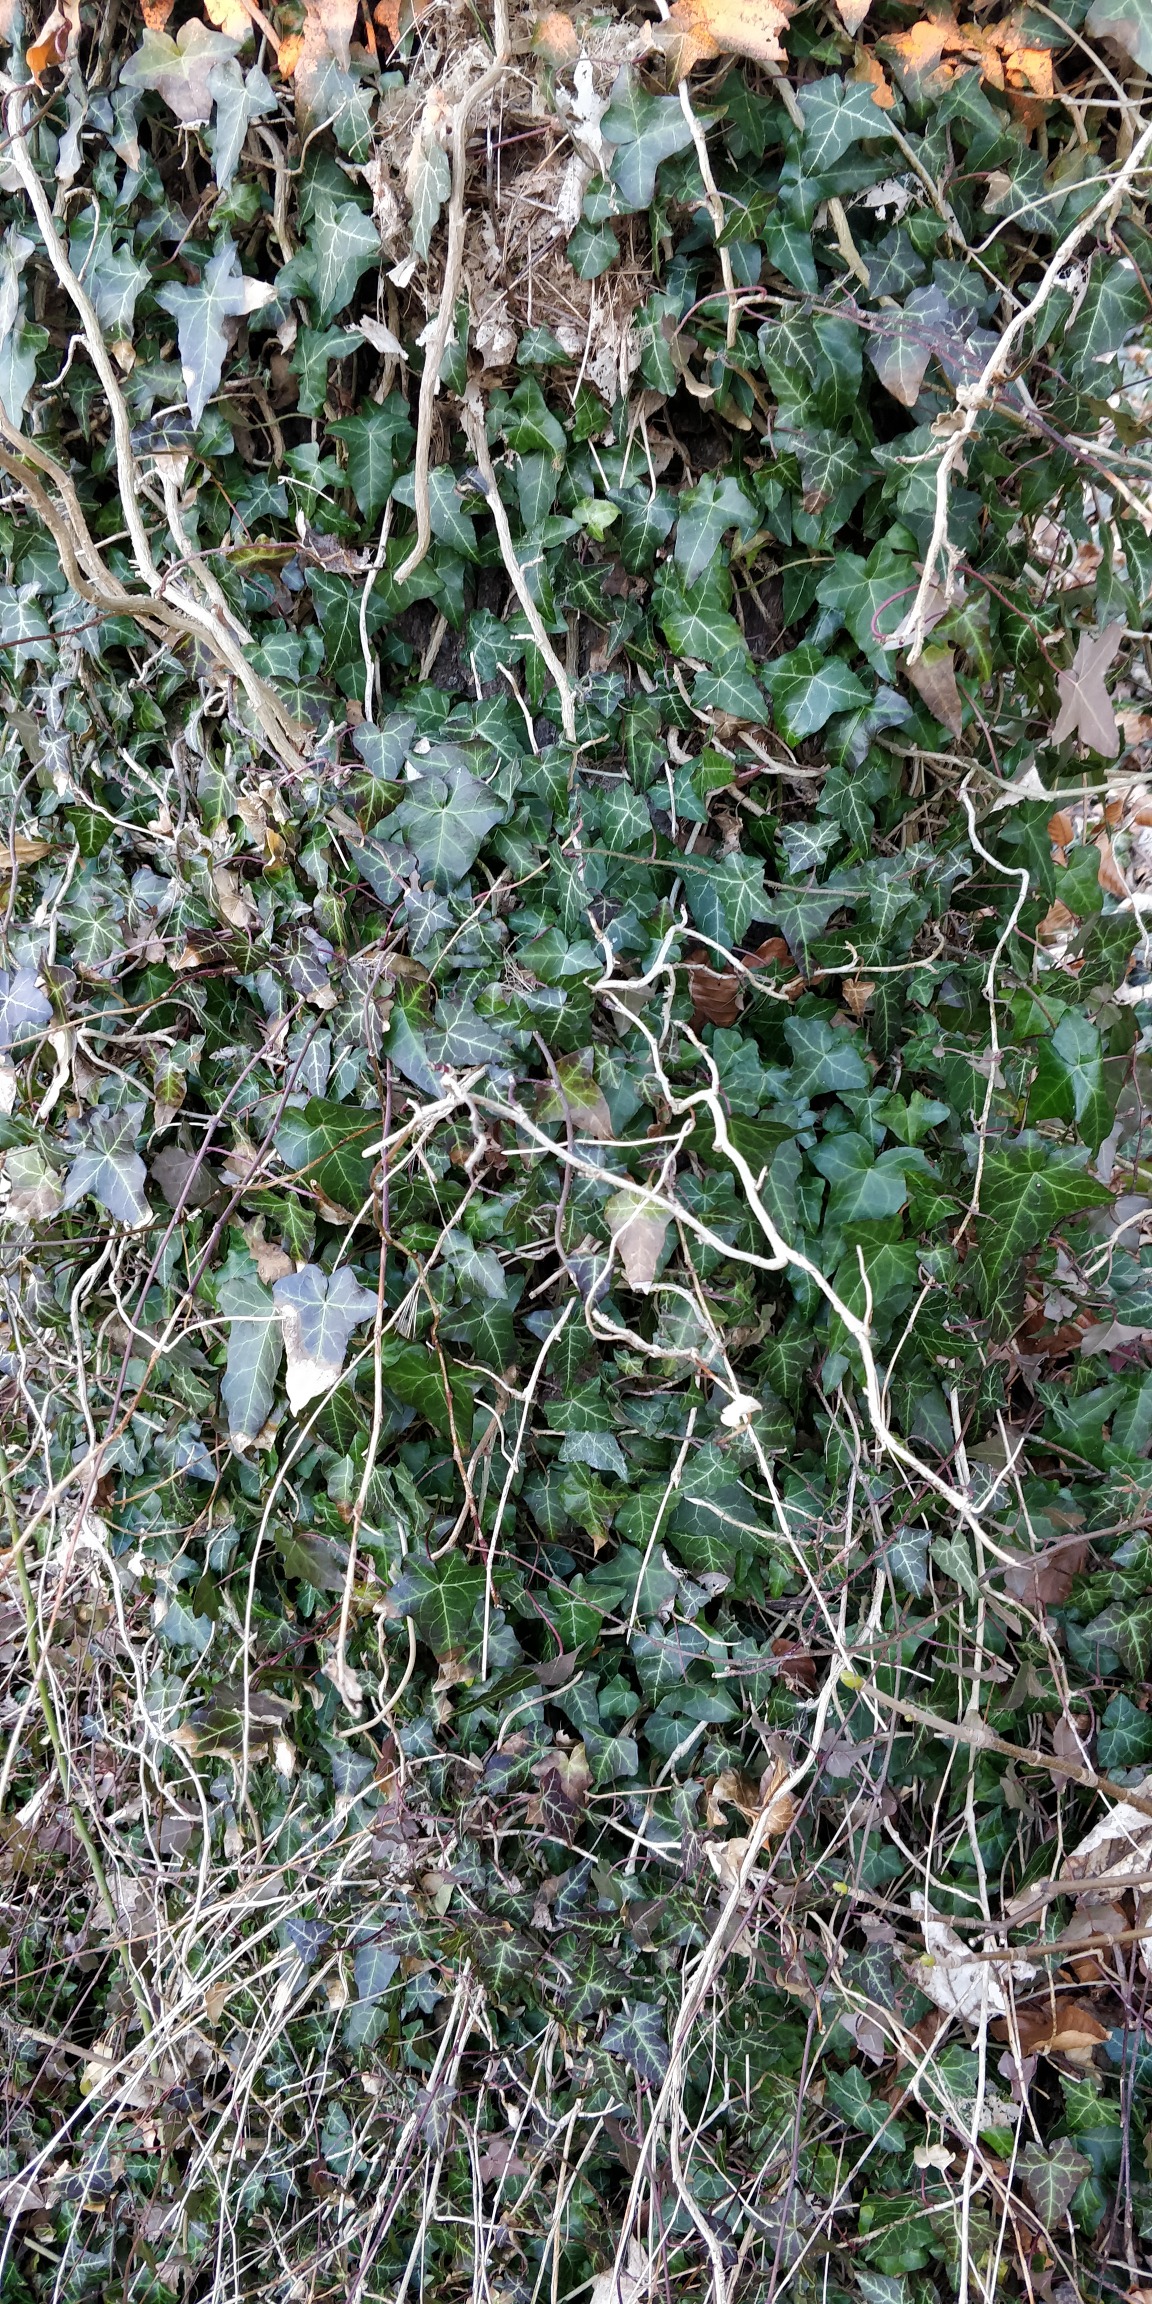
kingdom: Plantae
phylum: Tracheophyta
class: Magnoliopsida
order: Apiales
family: Araliaceae
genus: Hedera
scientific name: Hedera helix
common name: Vedbend
